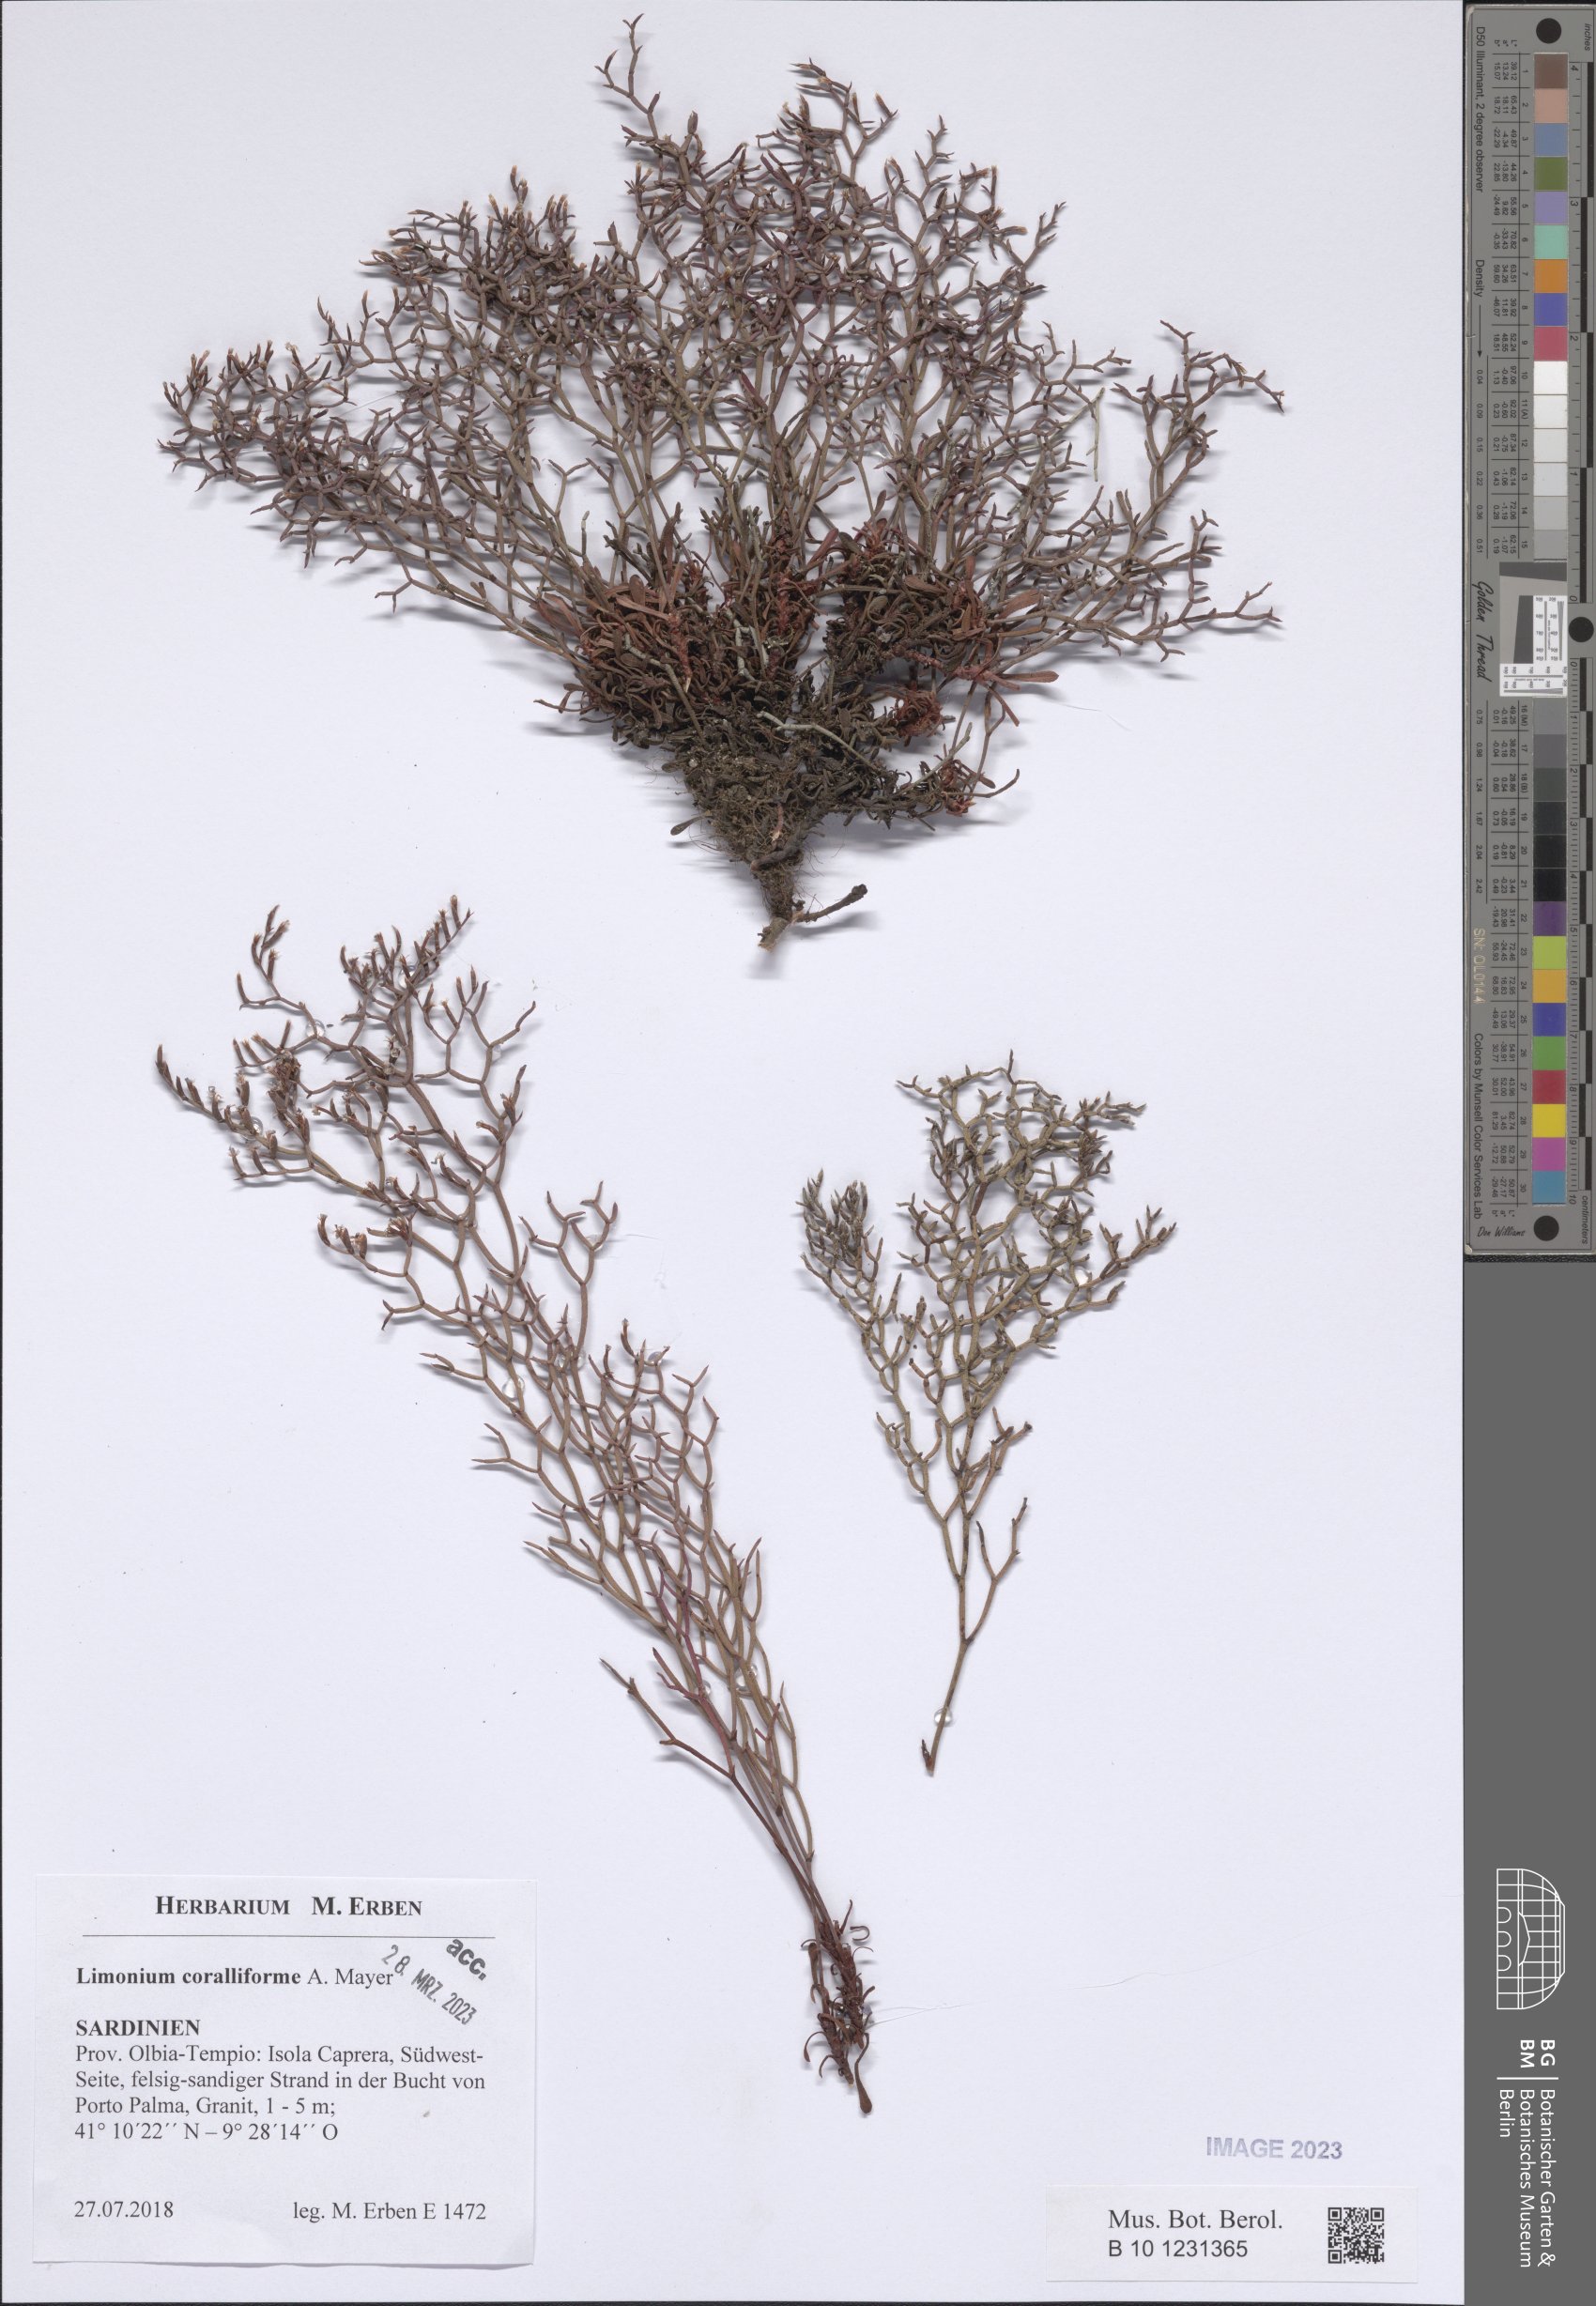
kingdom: Plantae
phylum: Tracheophyta
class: Magnoliopsida
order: Caryophyllales
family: Plumbaginaceae
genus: Limonium
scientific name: Limonium coralliforme
